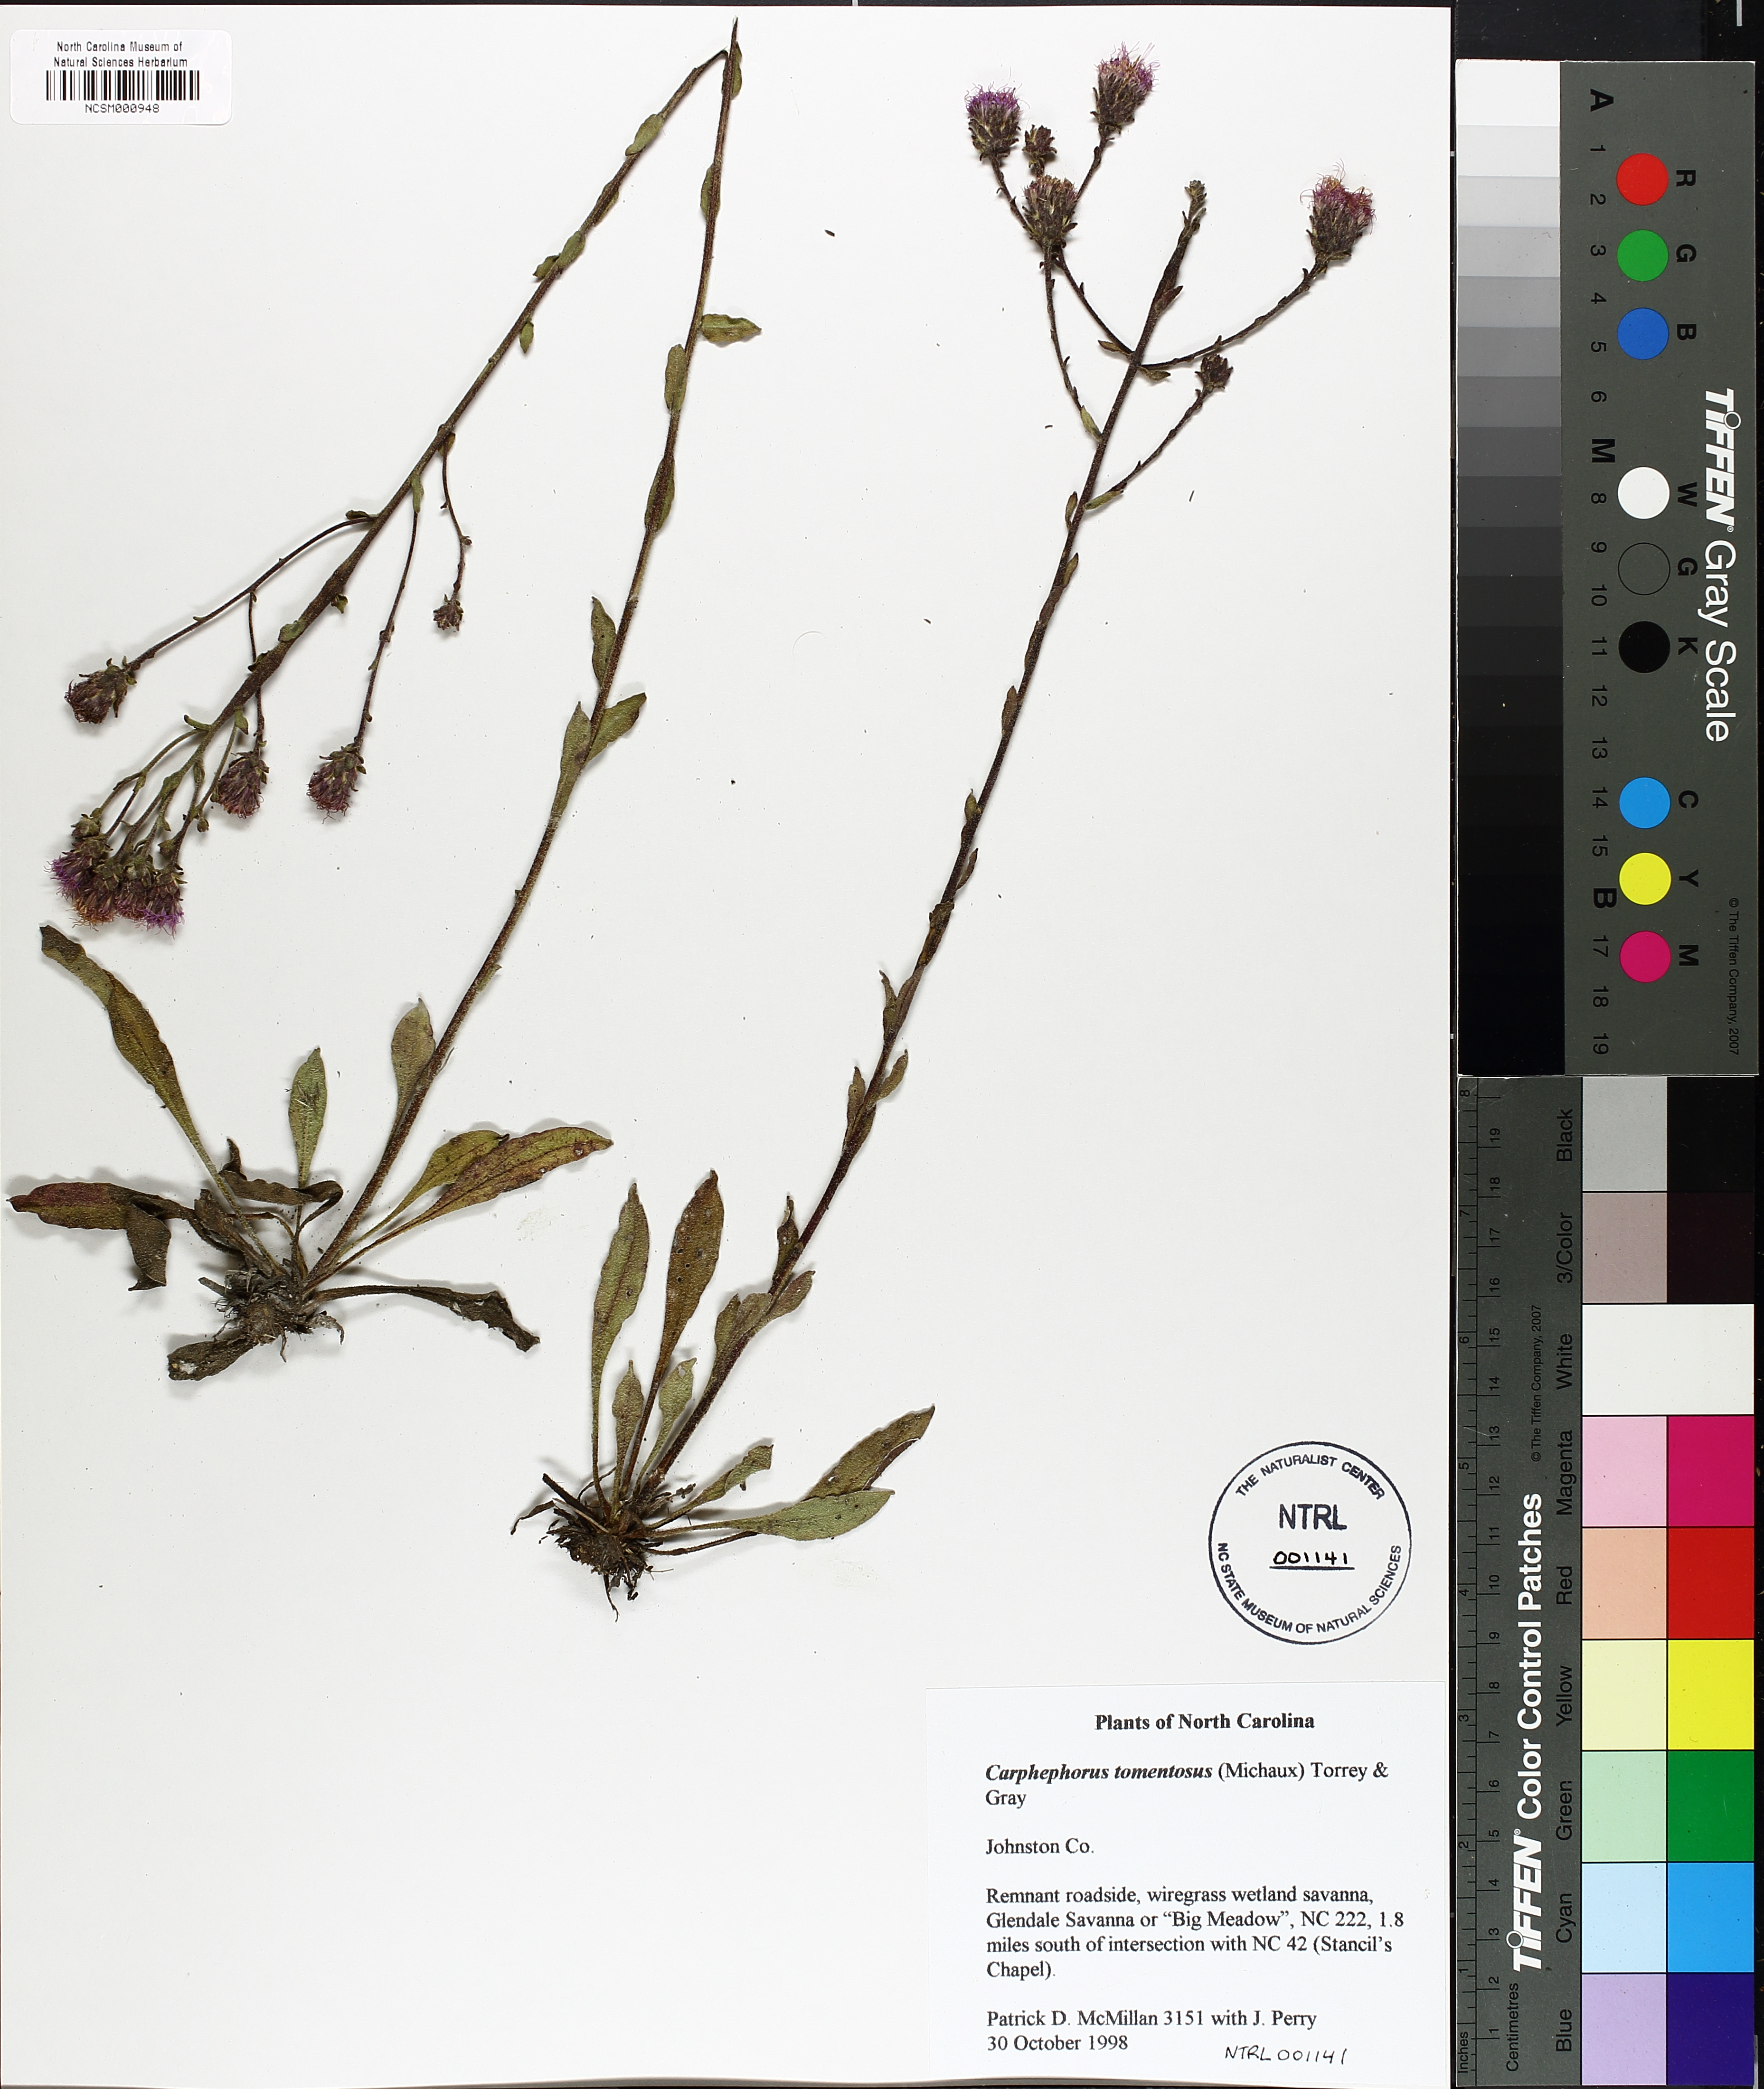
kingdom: Plantae
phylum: Tracheophyta
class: Magnoliopsida
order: Asterales
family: Asteraceae
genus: Carphephorus
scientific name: Carphephorus tomentosus
